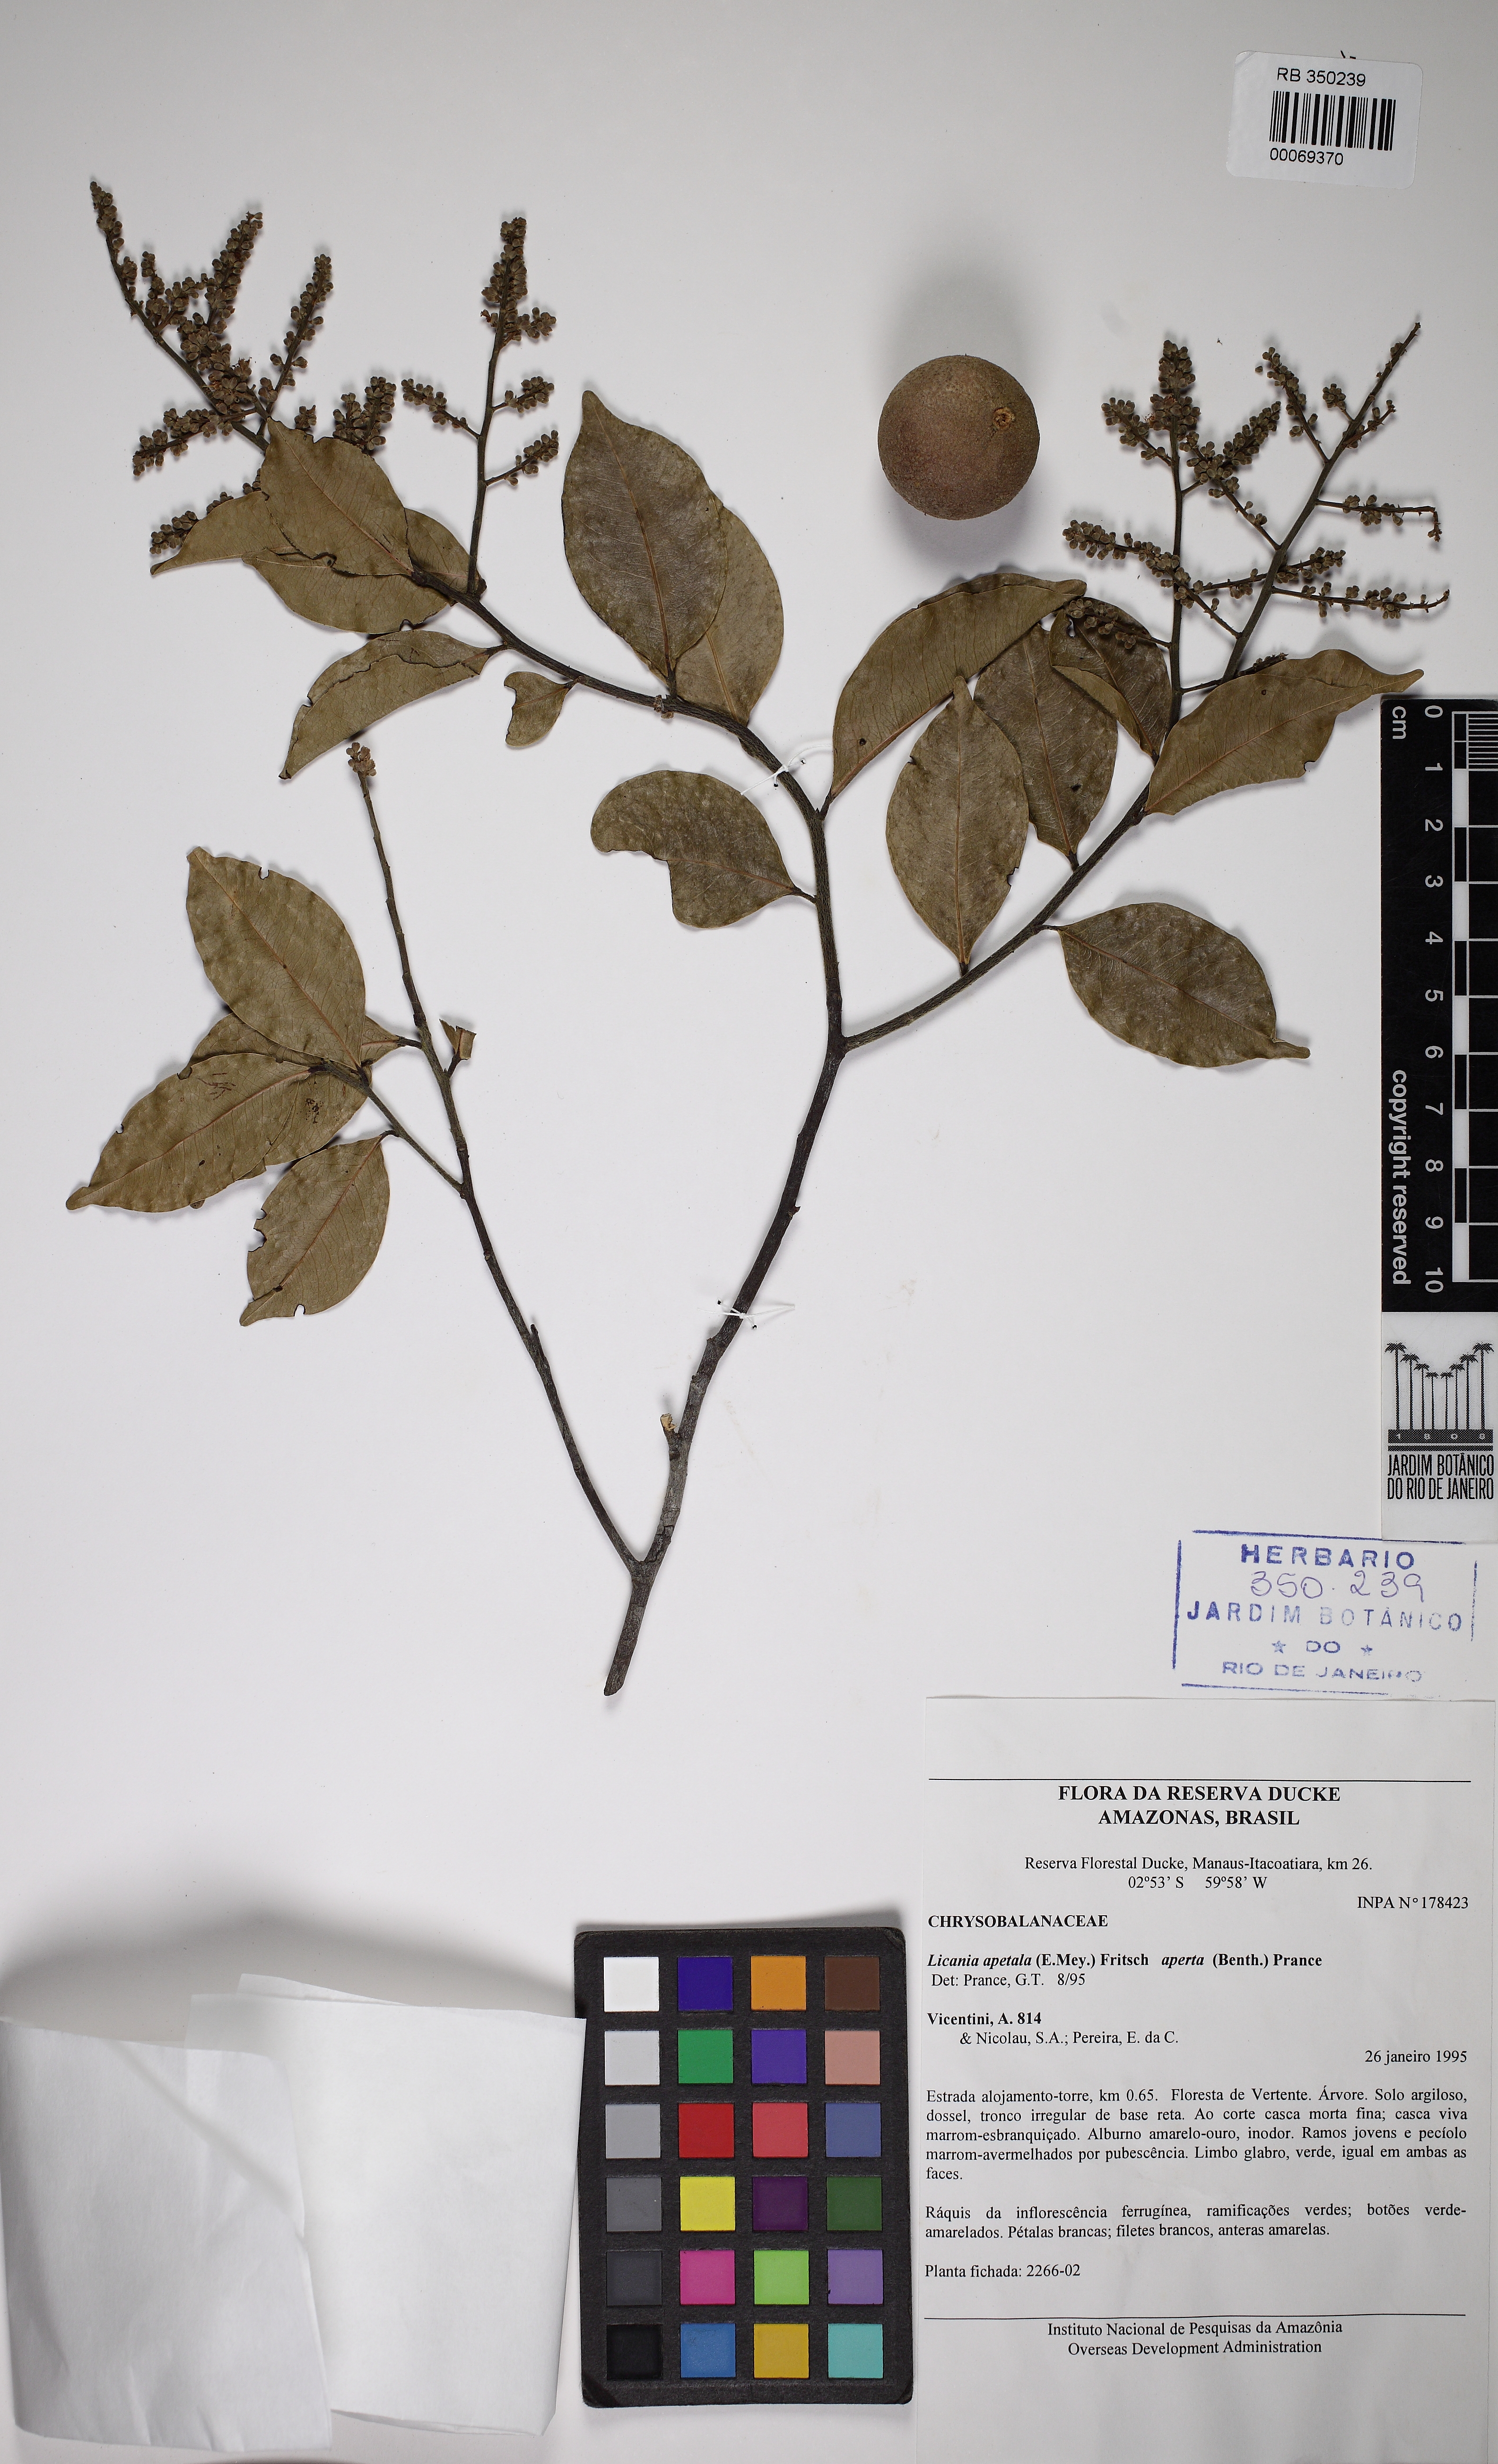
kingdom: Plantae
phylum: Tracheophyta
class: Magnoliopsida
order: Malpighiales
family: Chrysobalanaceae
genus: Leptobalanus
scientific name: Leptobalanus apetalus
